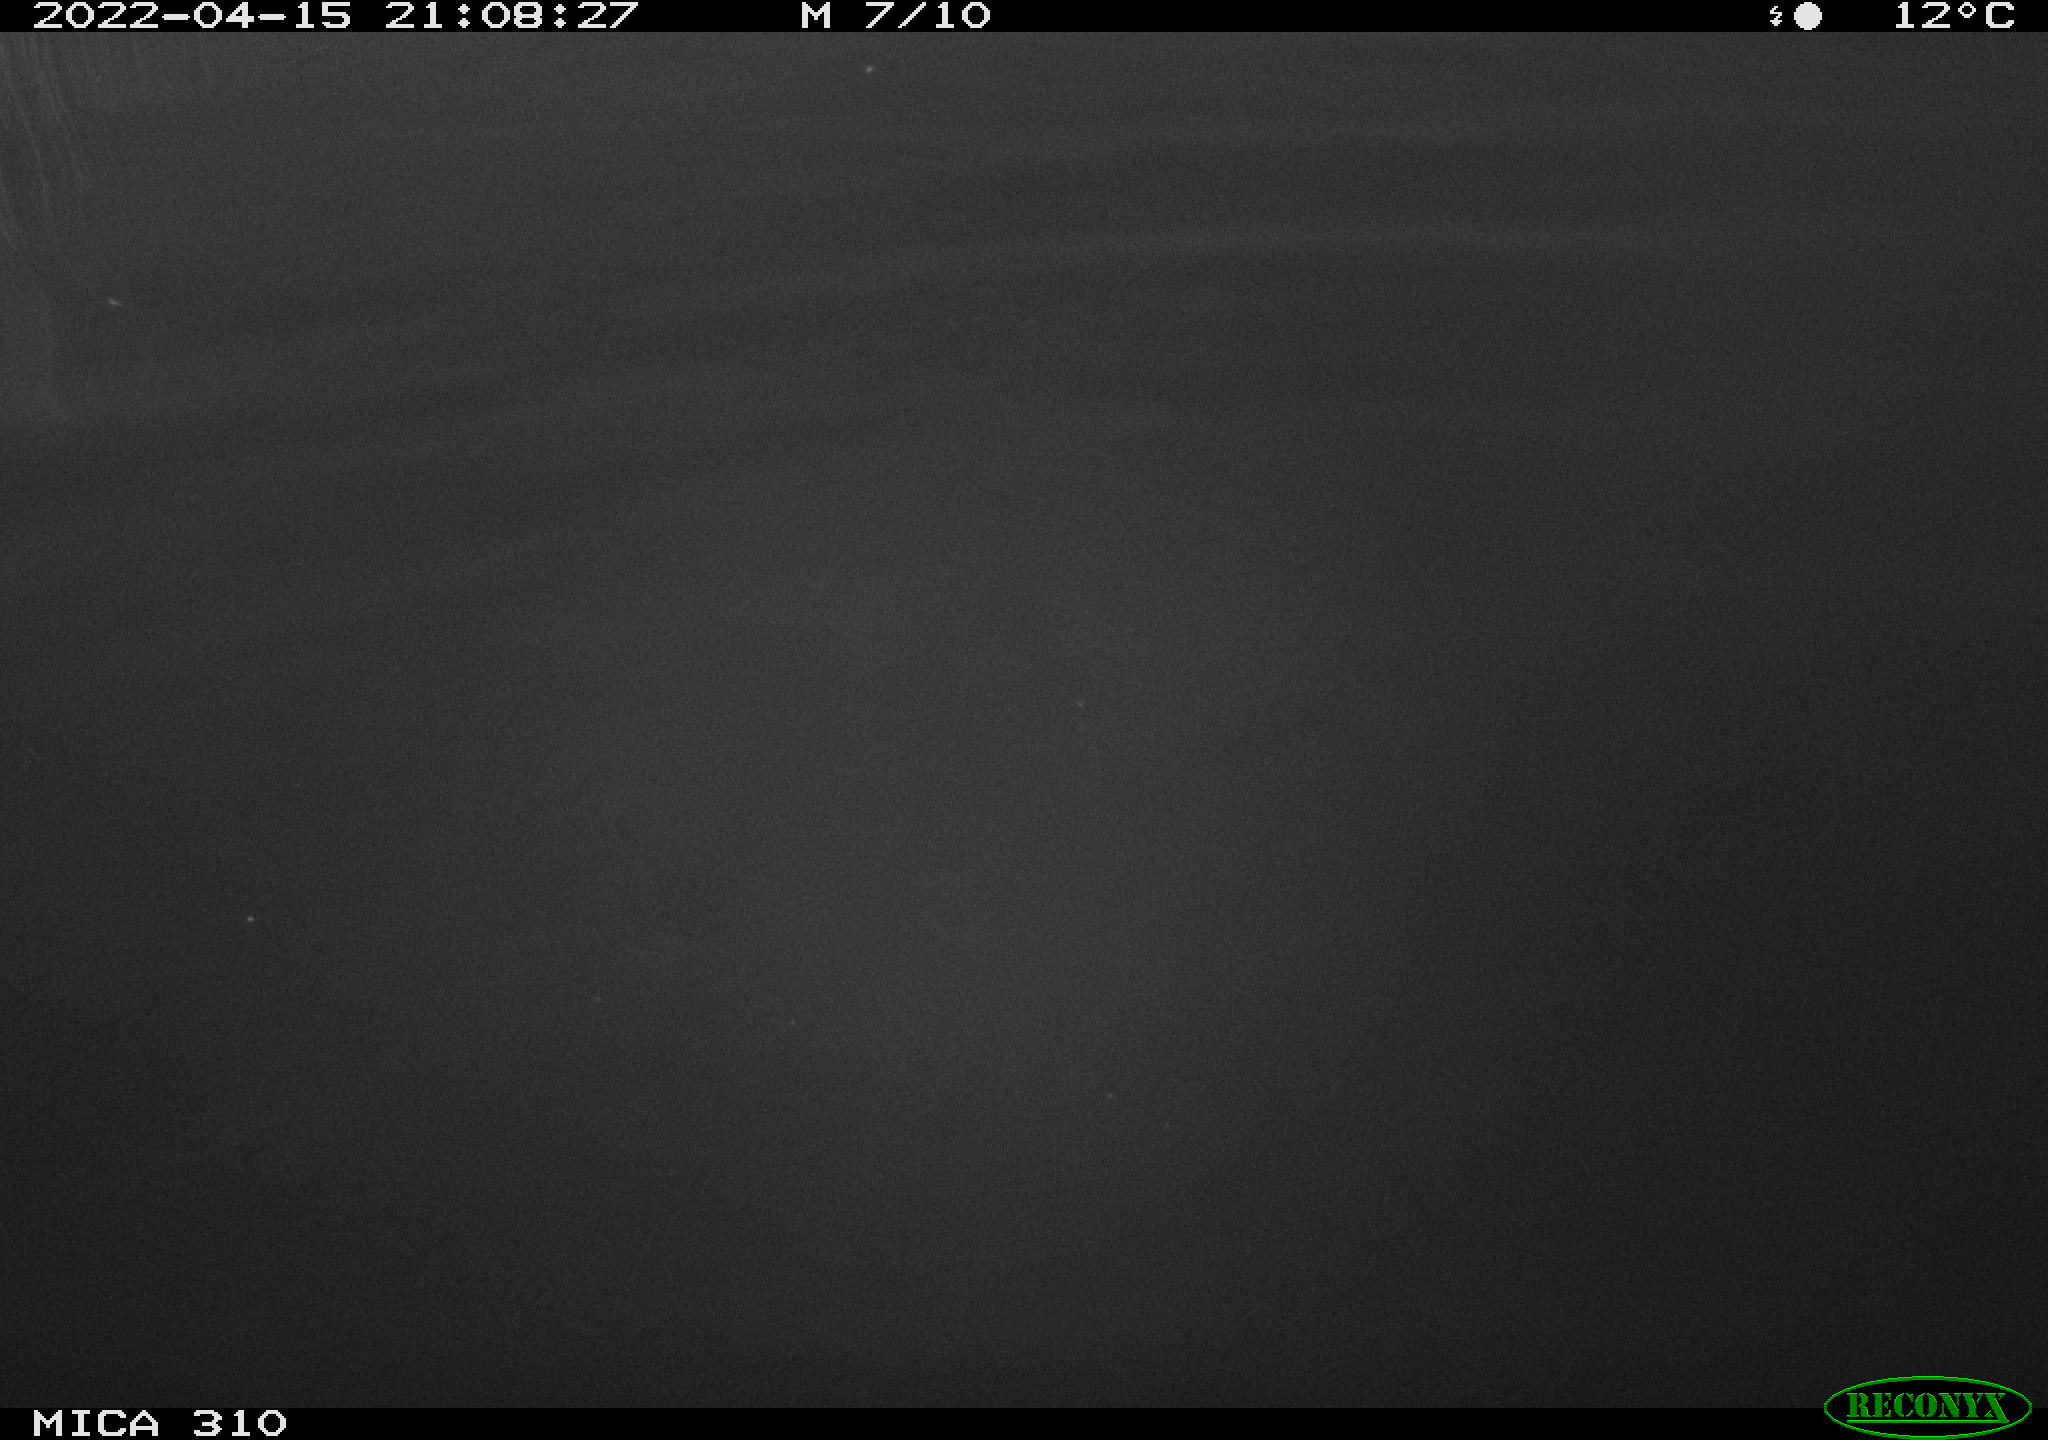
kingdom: Animalia
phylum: Chordata
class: Aves
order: Anseriformes
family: Anatidae
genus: Anas
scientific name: Anas platyrhynchos
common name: Mallard
